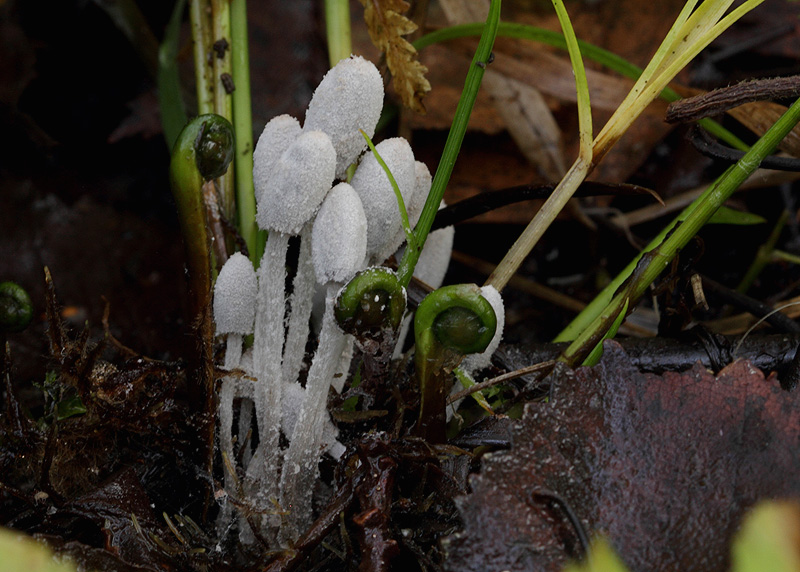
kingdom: Fungi
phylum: Basidiomycota
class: Agaricomycetes
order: Agaricales
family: Psathyrellaceae
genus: Coprinopsis
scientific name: Coprinopsis saccharomyces
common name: gær-blækhat
